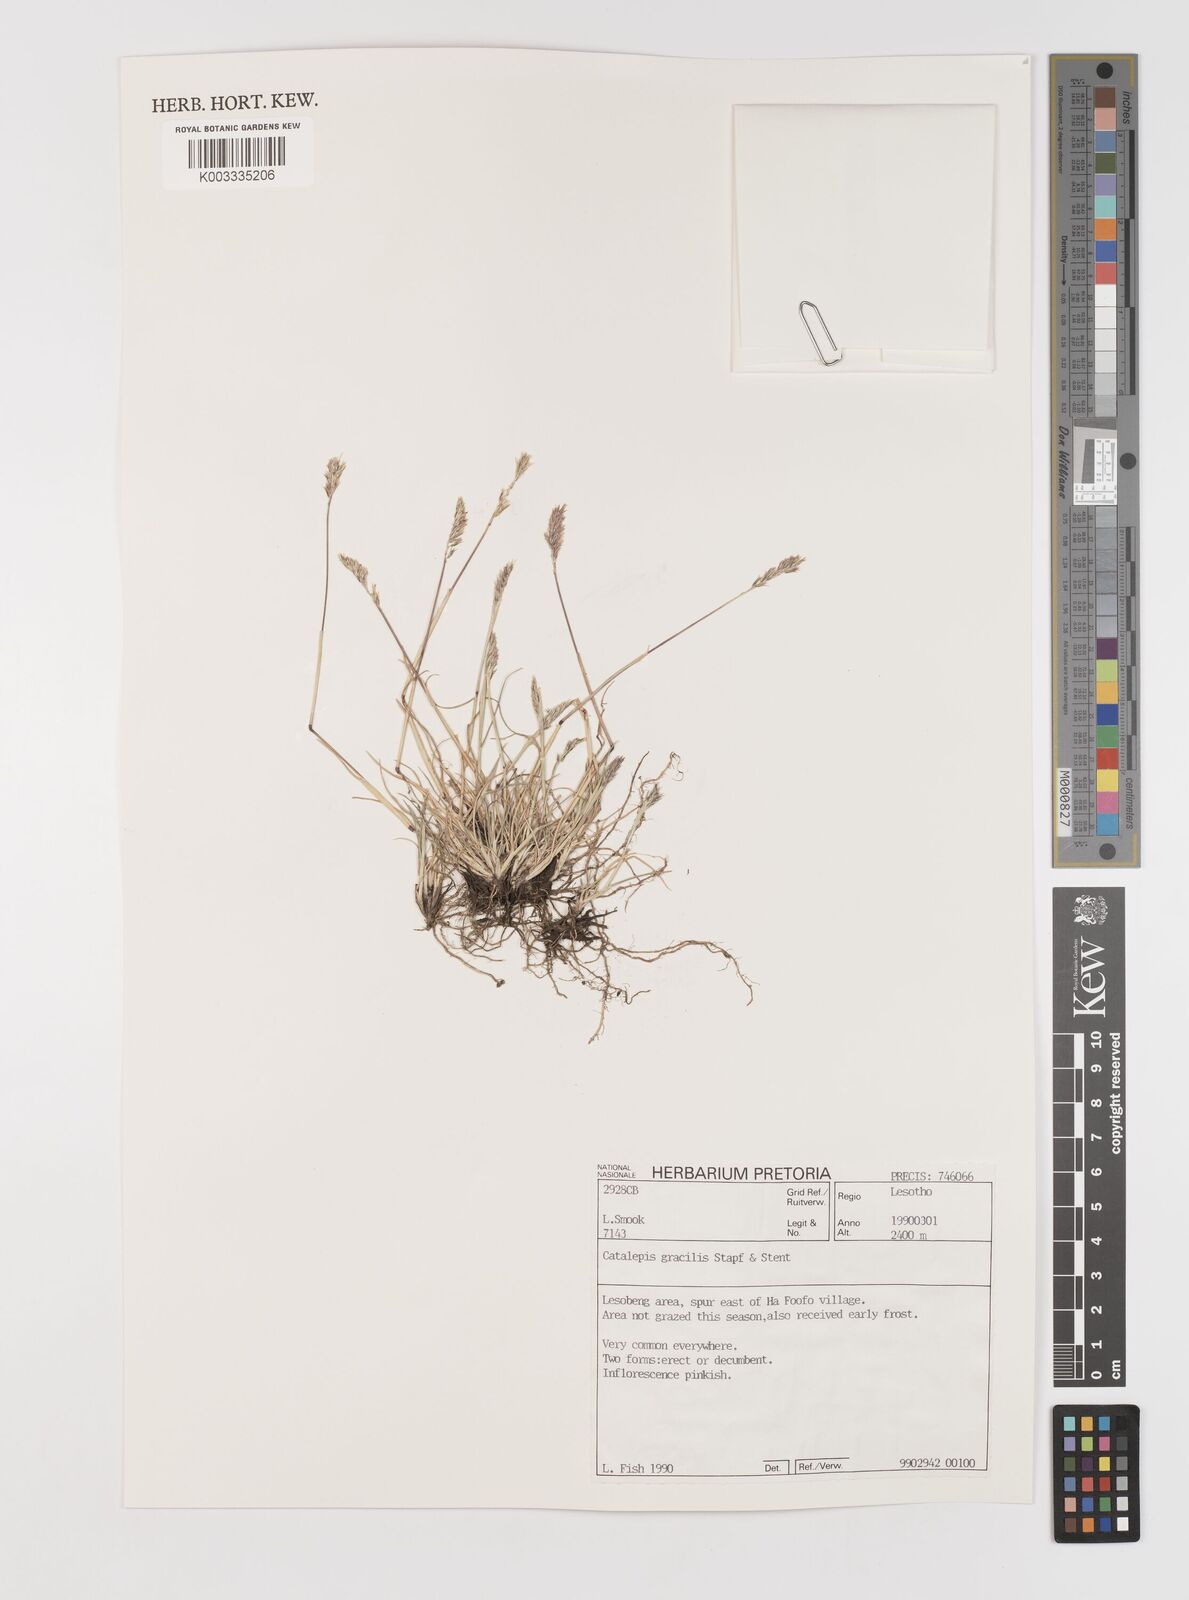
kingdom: Plantae
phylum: Tracheophyta
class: Liliopsida
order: Poales
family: Poaceae
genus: Catalepis
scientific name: Catalepis gracilis
